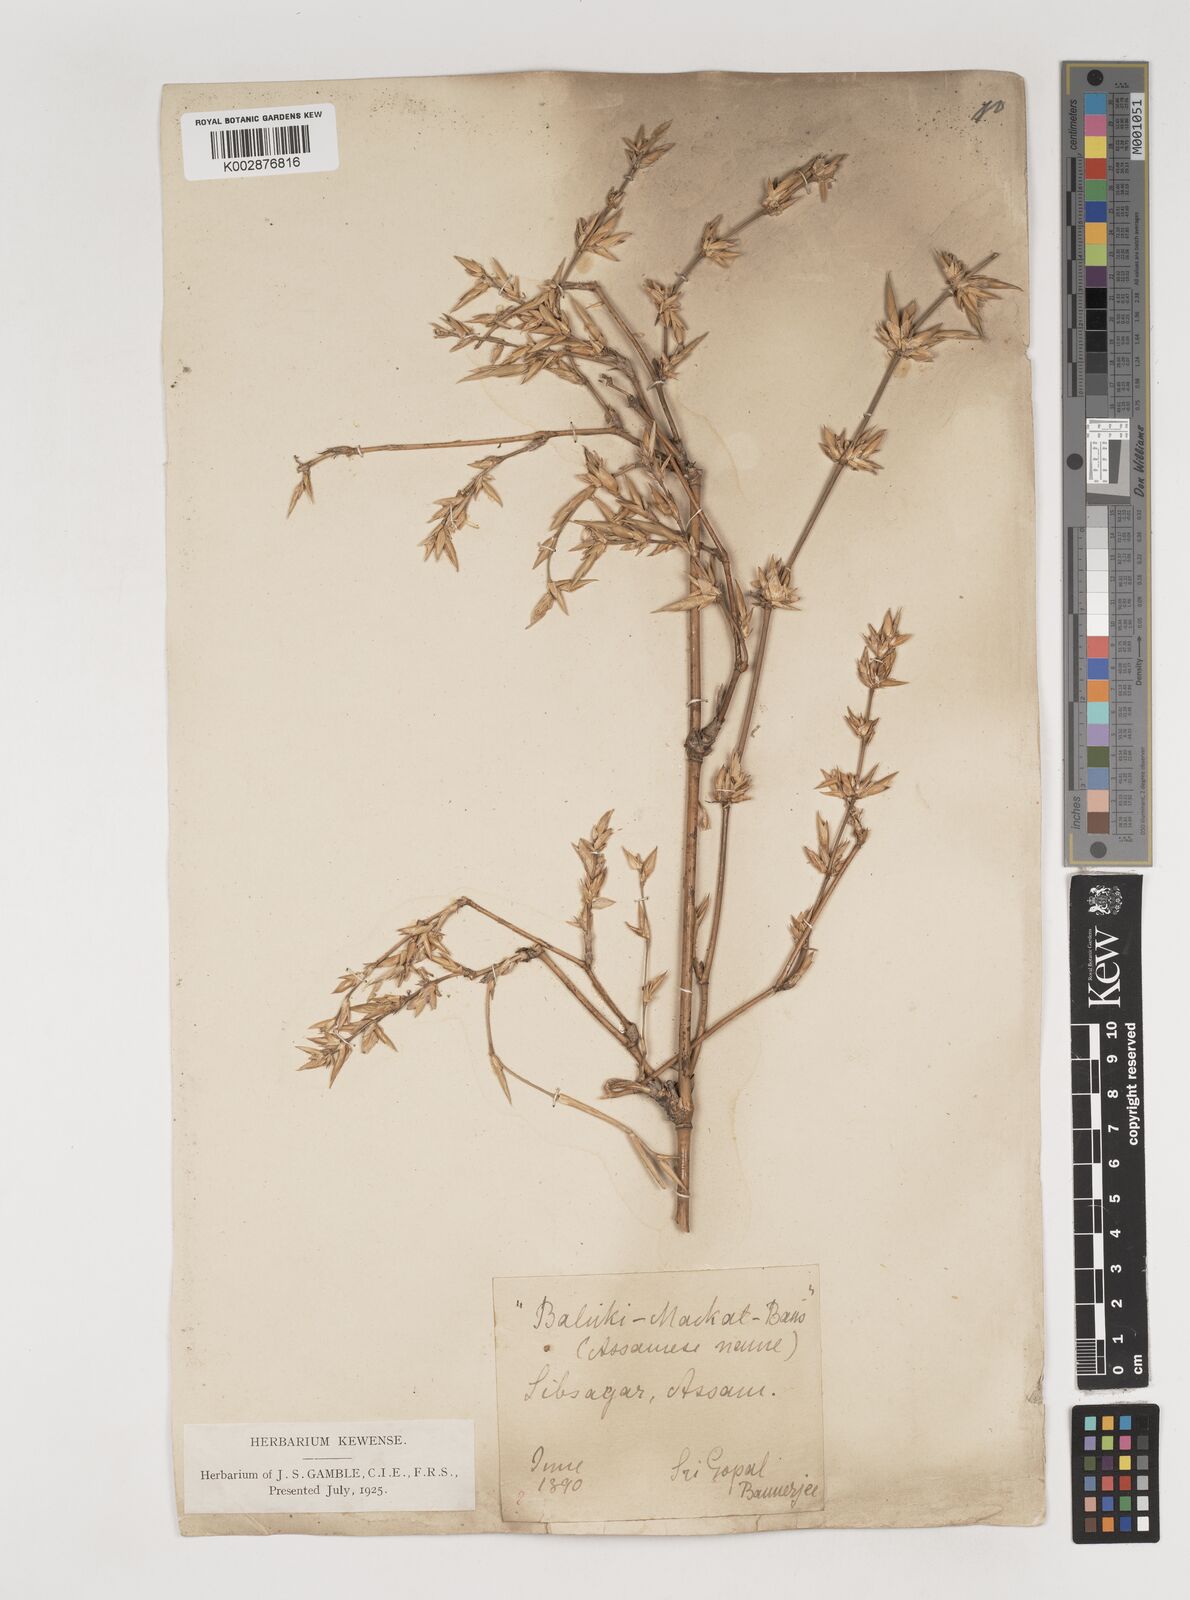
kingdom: Plantae
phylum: Tracheophyta
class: Liliopsida
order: Poales
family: Poaceae
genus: Bambusa
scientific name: Bambusa teres
